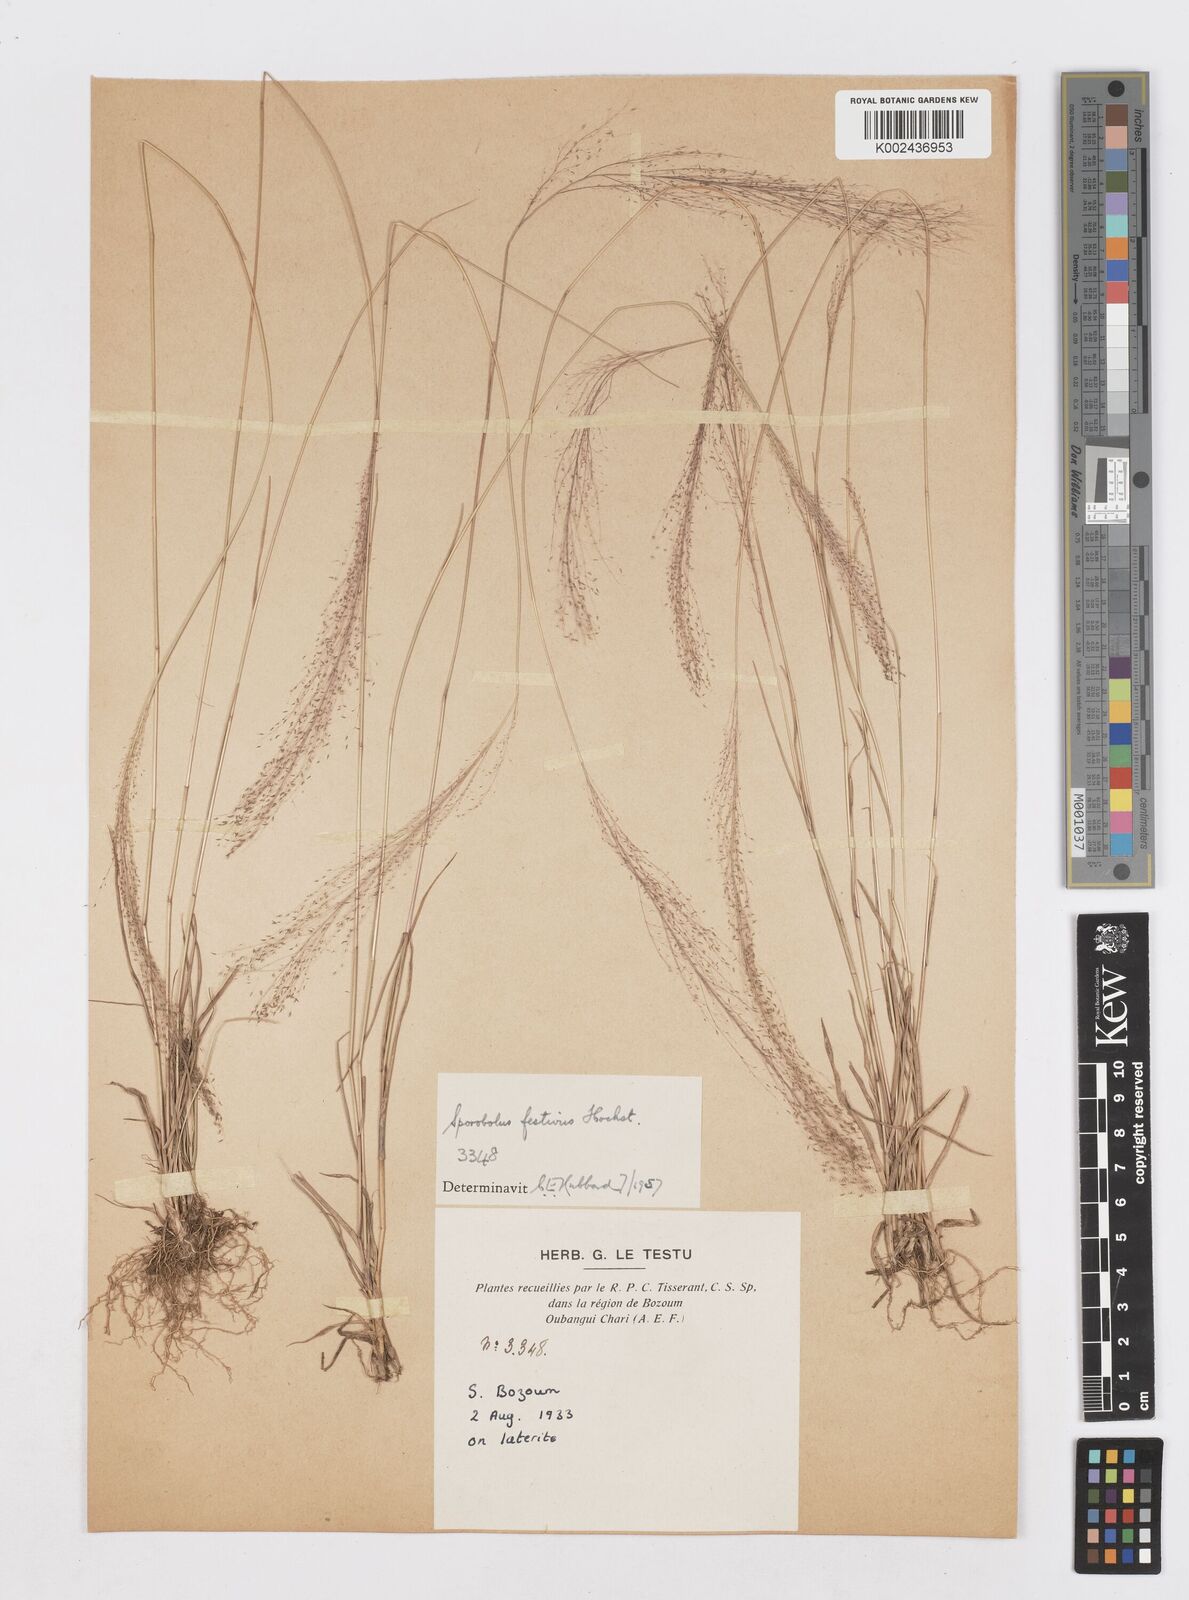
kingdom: Plantae
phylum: Tracheophyta
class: Liliopsida
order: Poales
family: Poaceae
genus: Sporobolus
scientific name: Sporobolus festivus
